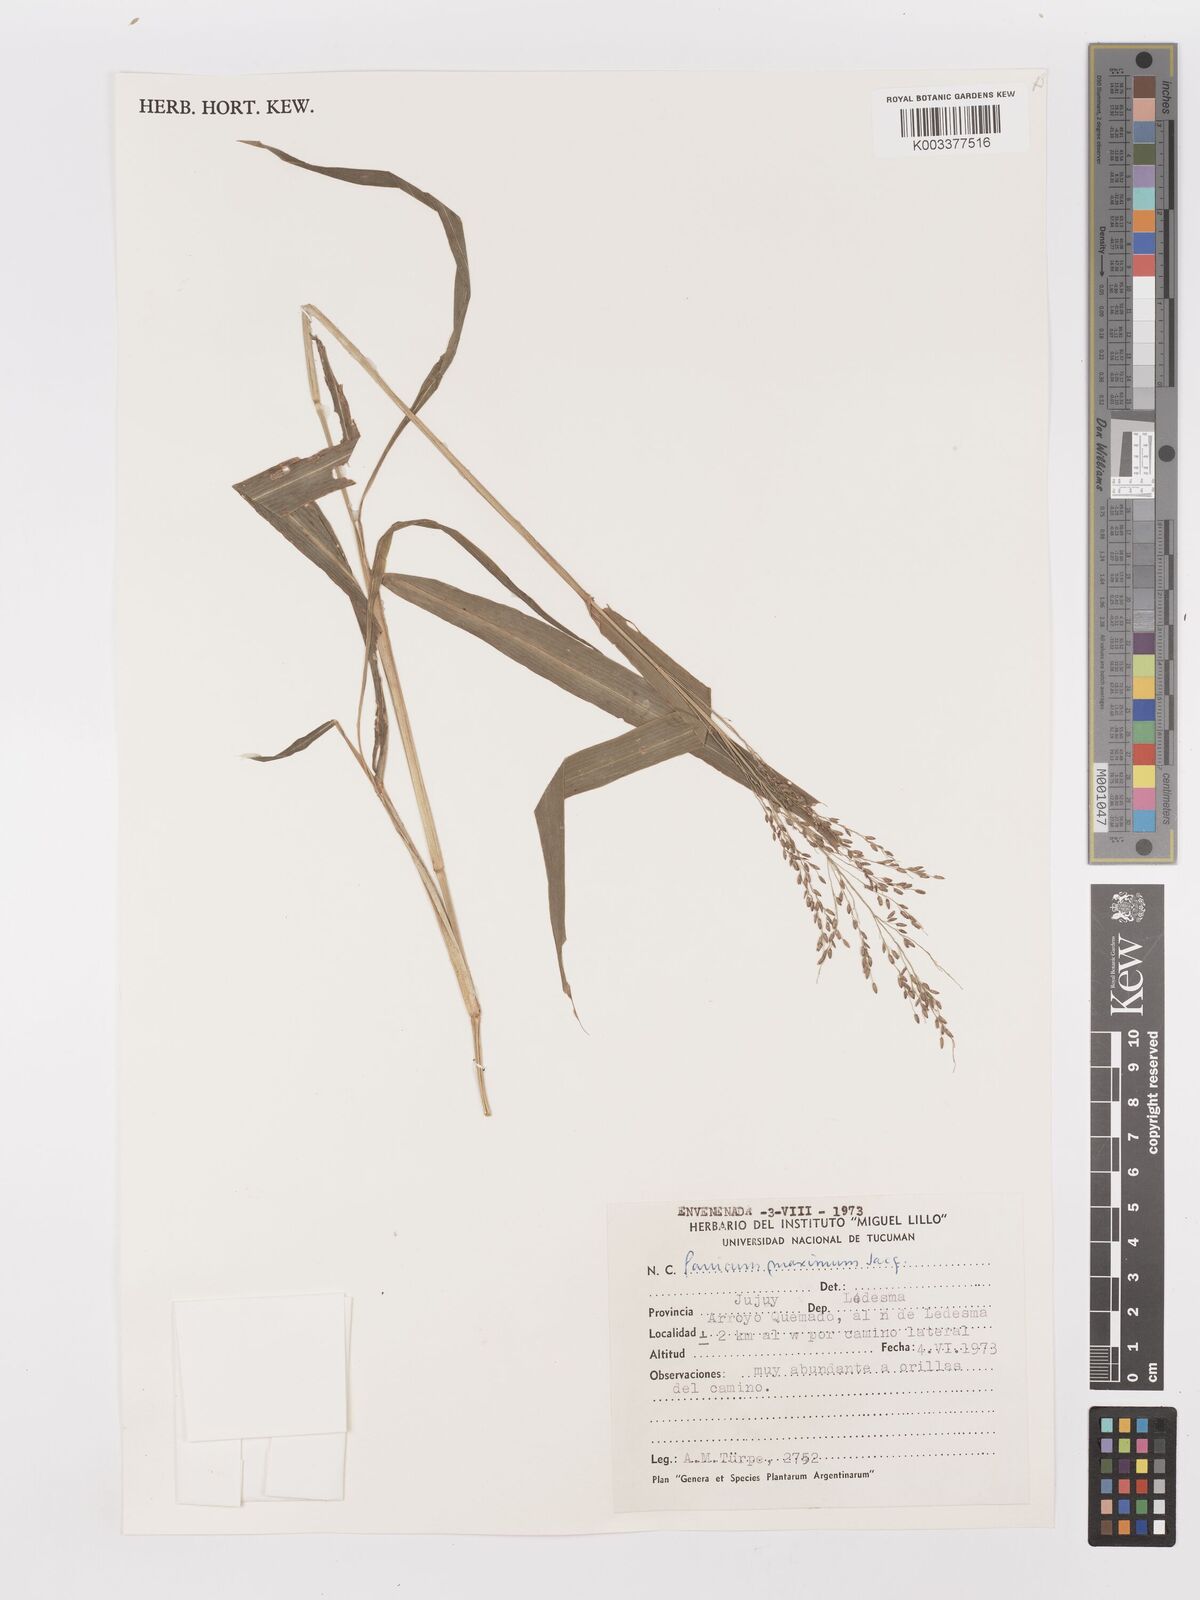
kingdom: Plantae
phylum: Tracheophyta
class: Liliopsida
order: Poales
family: Poaceae
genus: Megathyrsus
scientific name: Megathyrsus maximus
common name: Guineagrass
